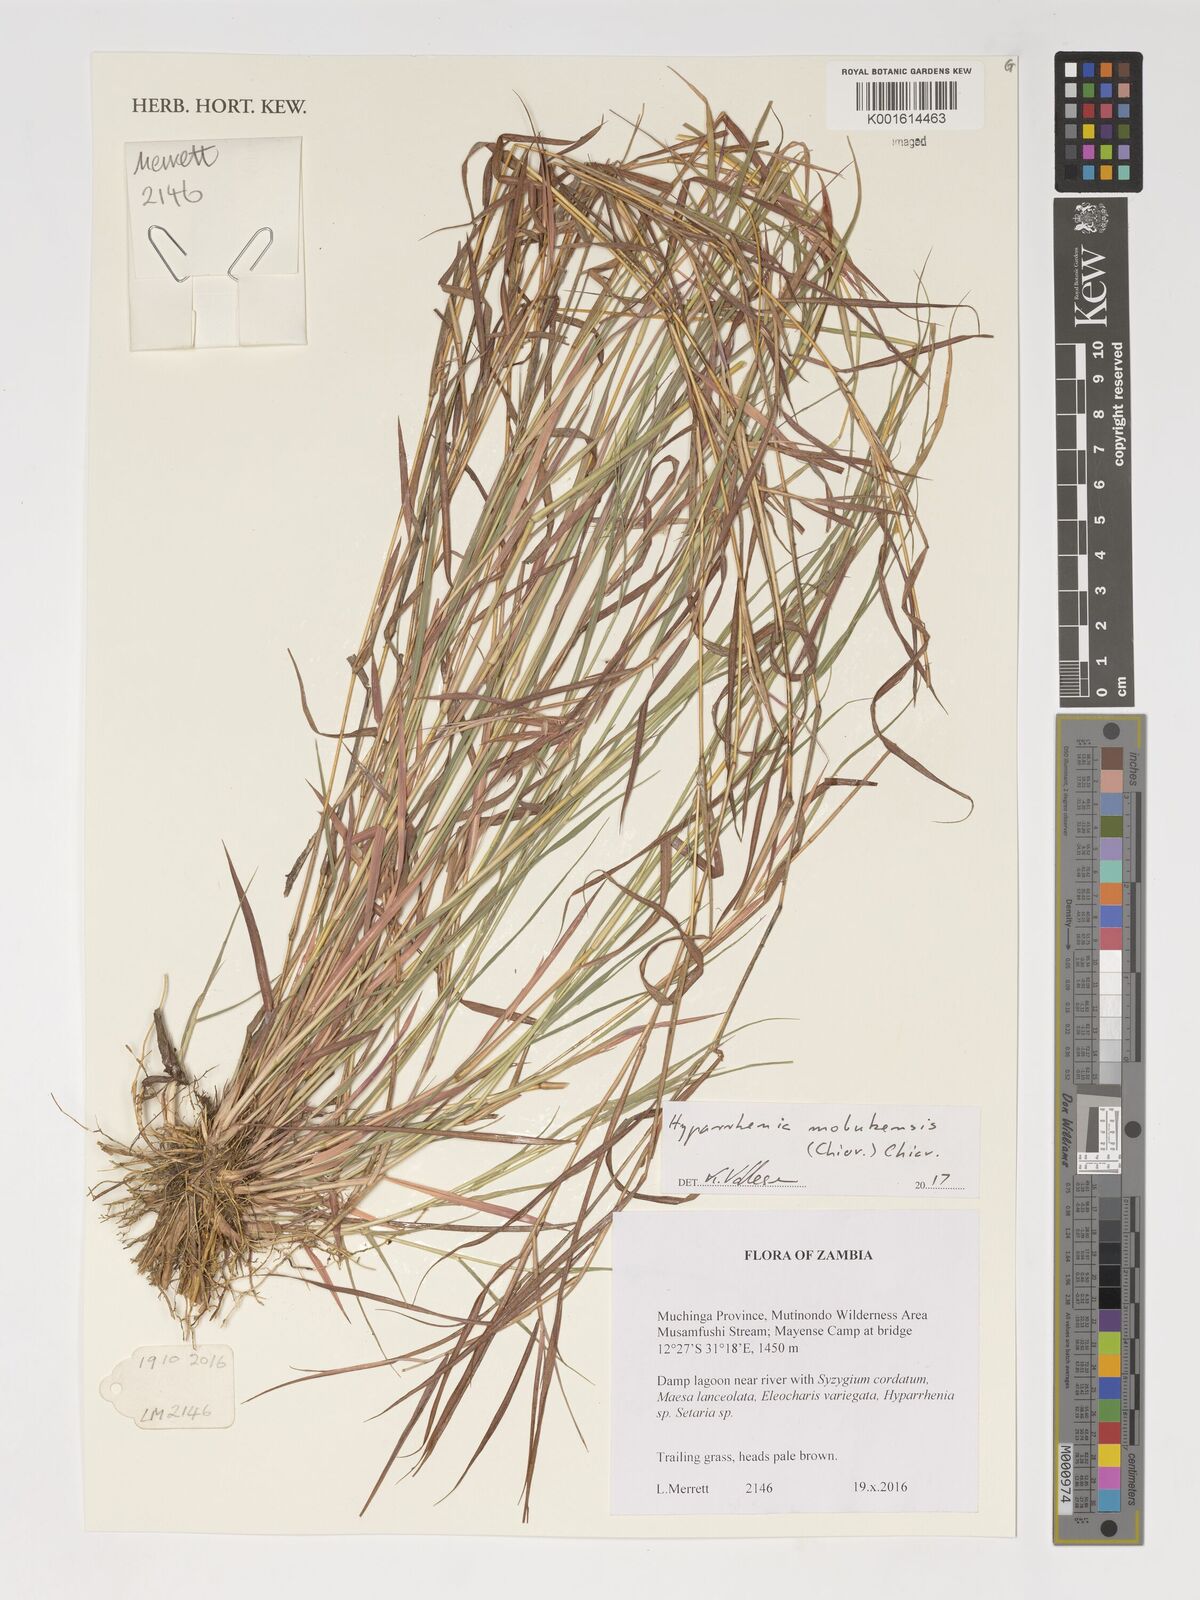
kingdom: Plantae
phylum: Tracheophyta
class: Liliopsida
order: Poales
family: Poaceae
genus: Hyparrhenia
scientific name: Hyparrhenia mobukensis
